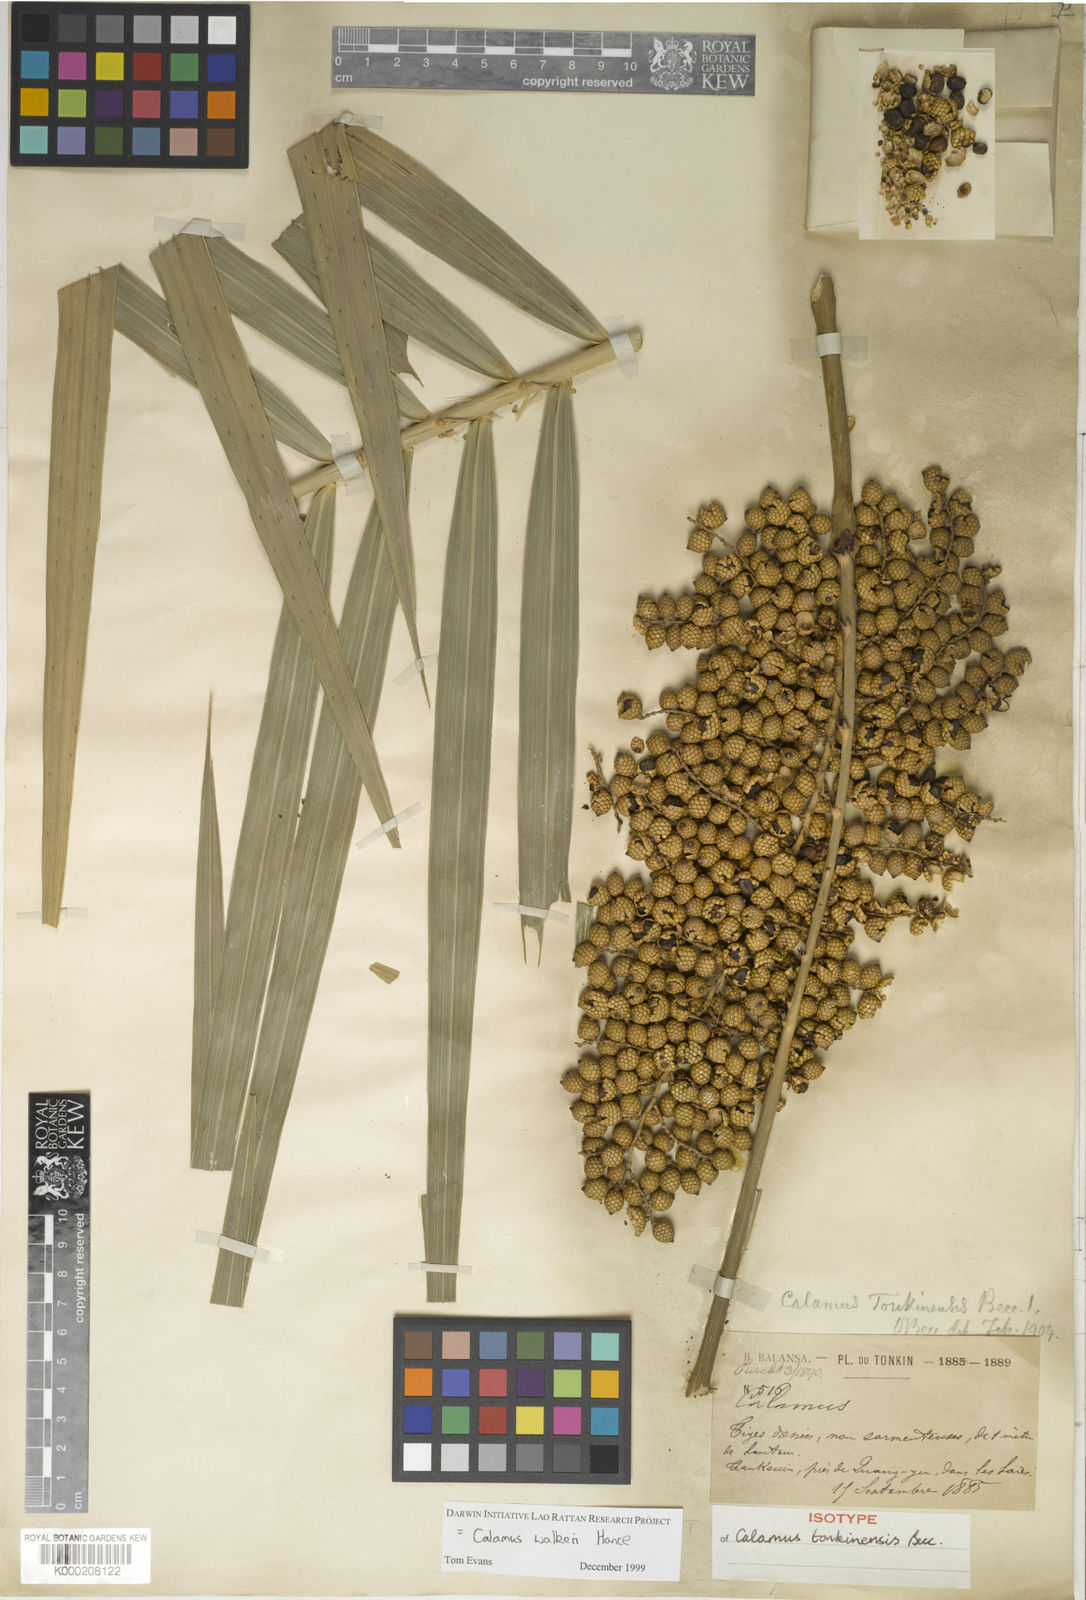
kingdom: Plantae
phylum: Tracheophyta
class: Liliopsida
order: Arecales
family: Arecaceae
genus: Calamus
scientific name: Calamus walkeri
